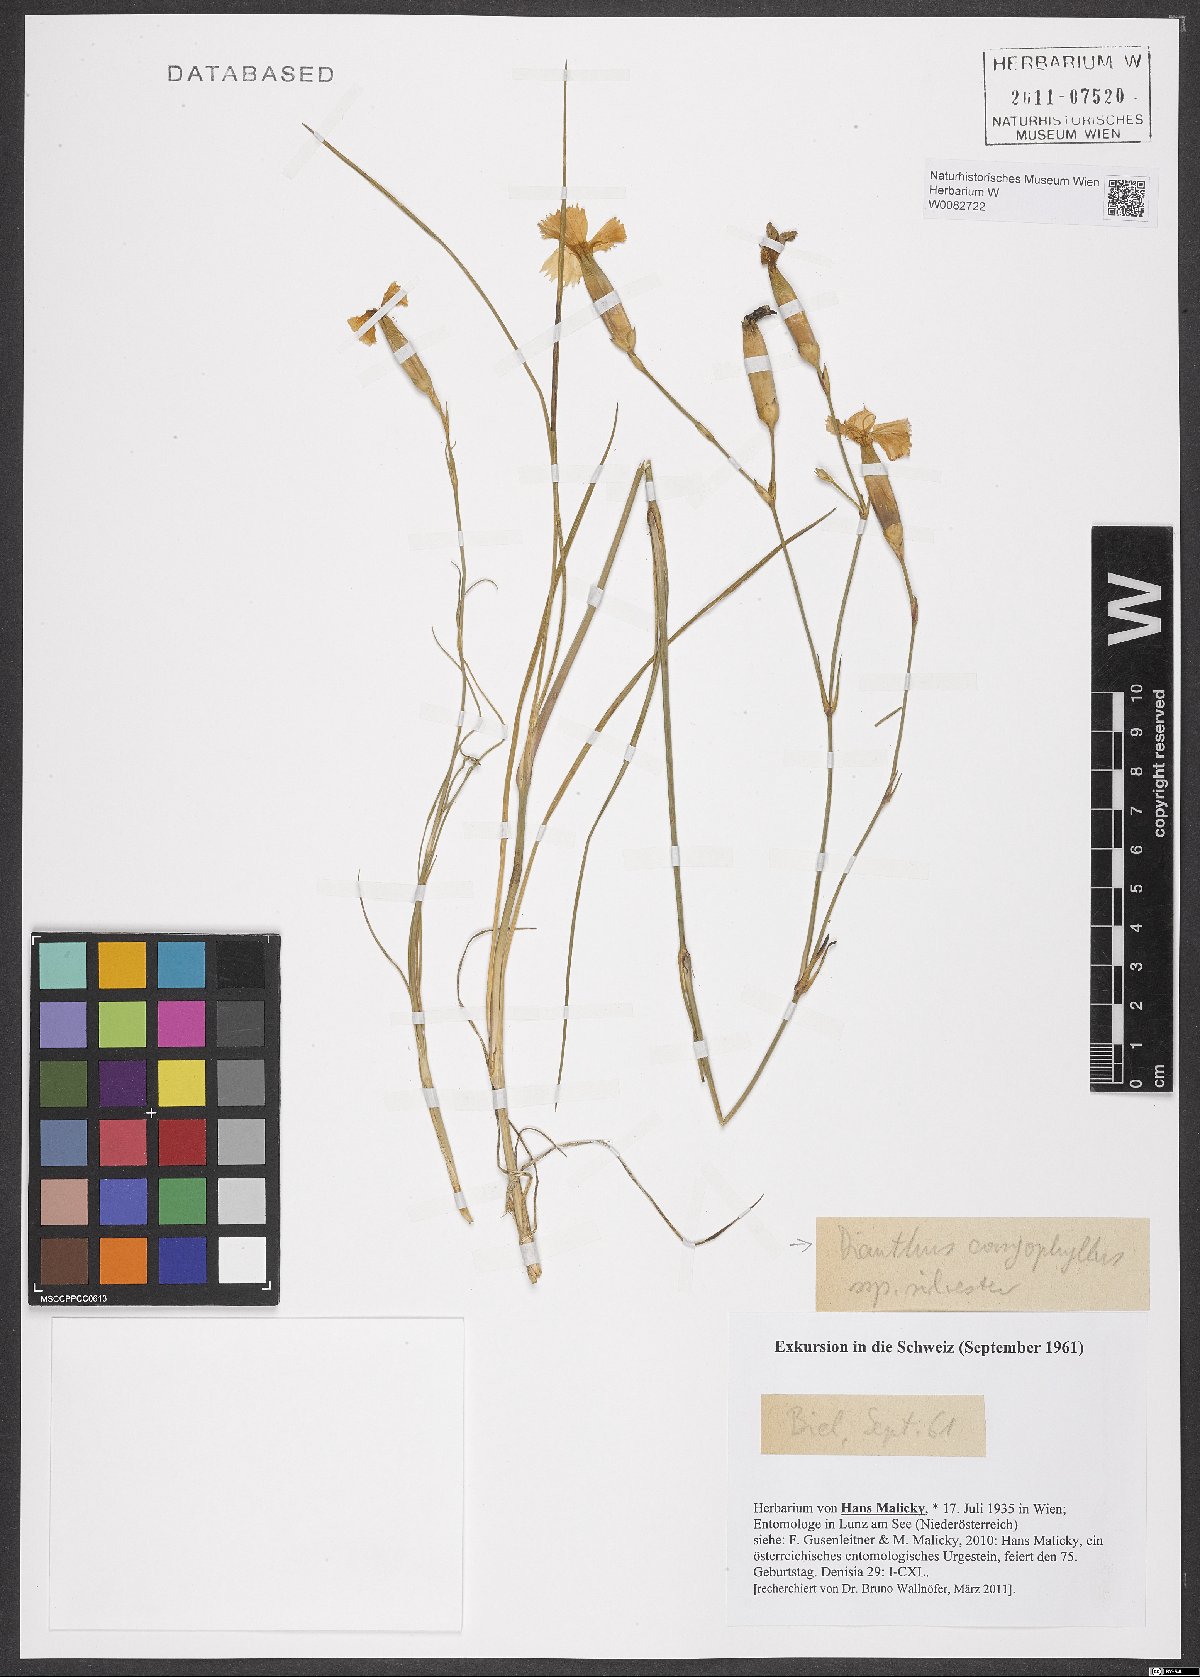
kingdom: Plantae
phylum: Tracheophyta
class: Magnoliopsida
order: Caryophyllales
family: Caryophyllaceae
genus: Dianthus
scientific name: Dianthus caryophyllus
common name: Clove pink
